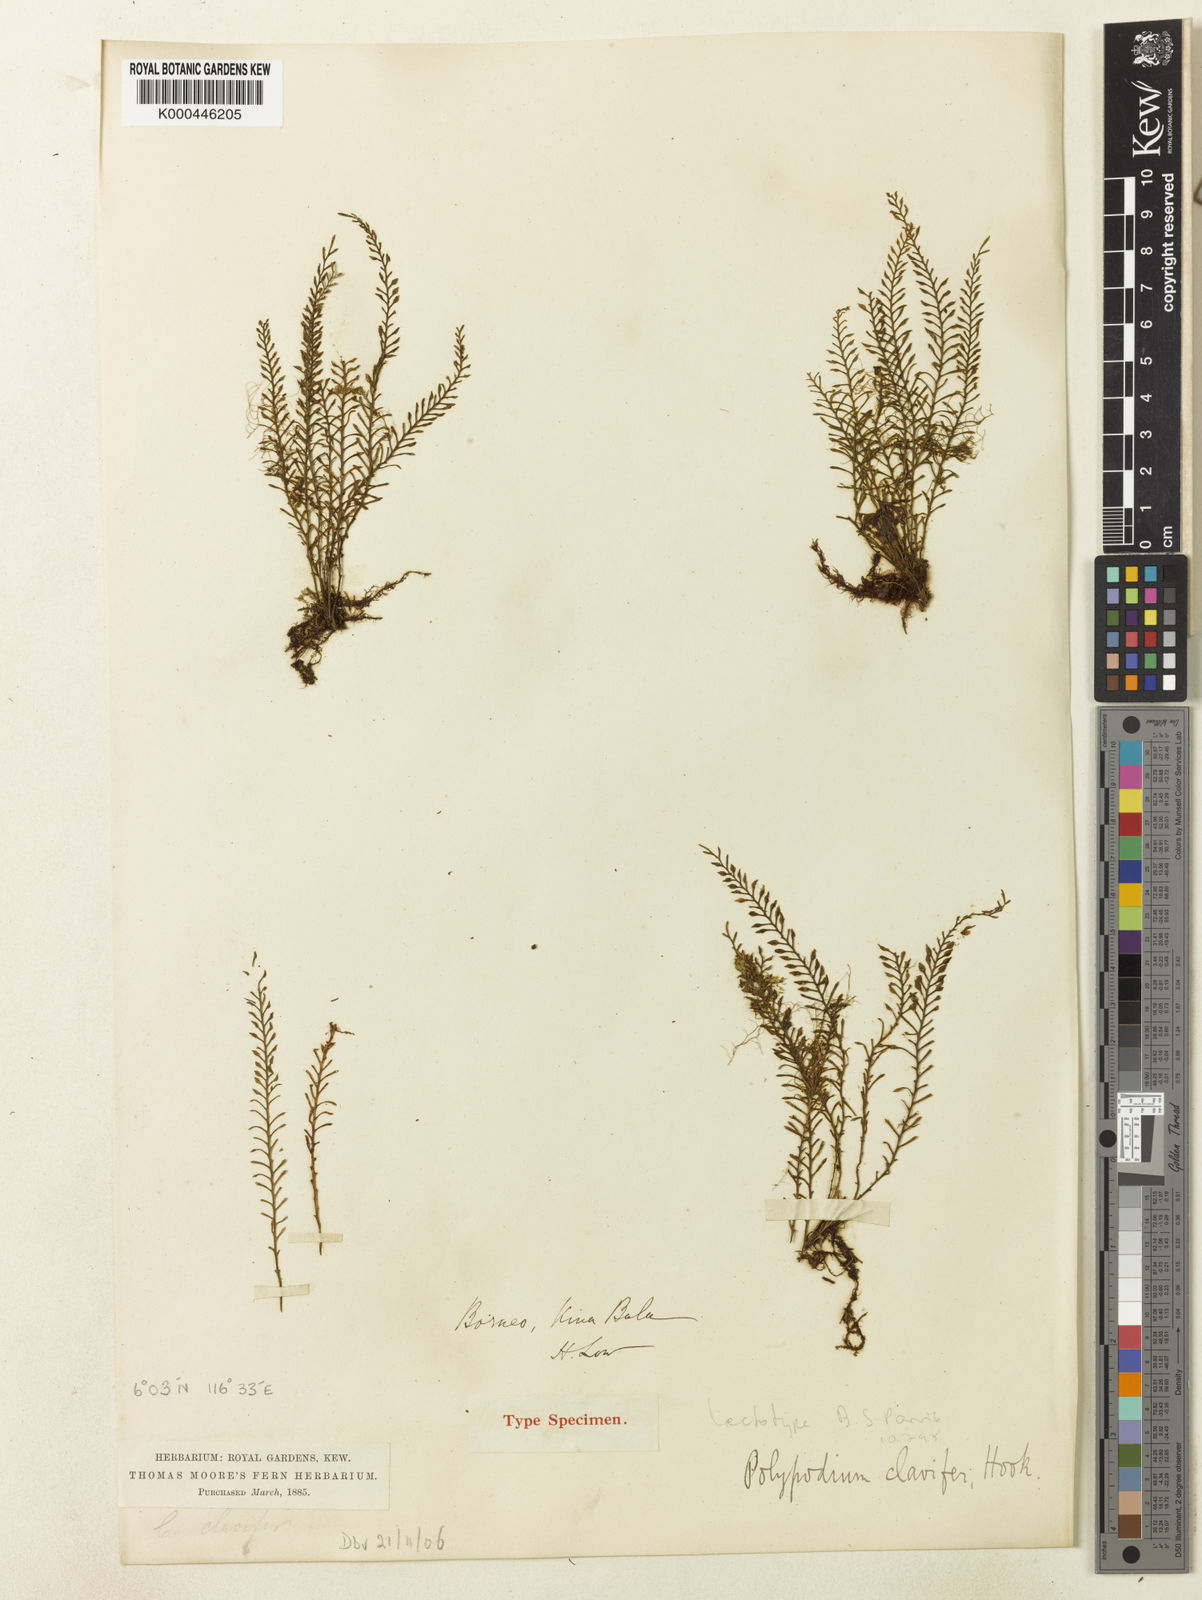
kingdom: Plantae
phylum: Tracheophyta
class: Polypodiopsida
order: Polypodiales
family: Polypodiaceae
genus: Calymmodon
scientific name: Calymmodon clavifer
